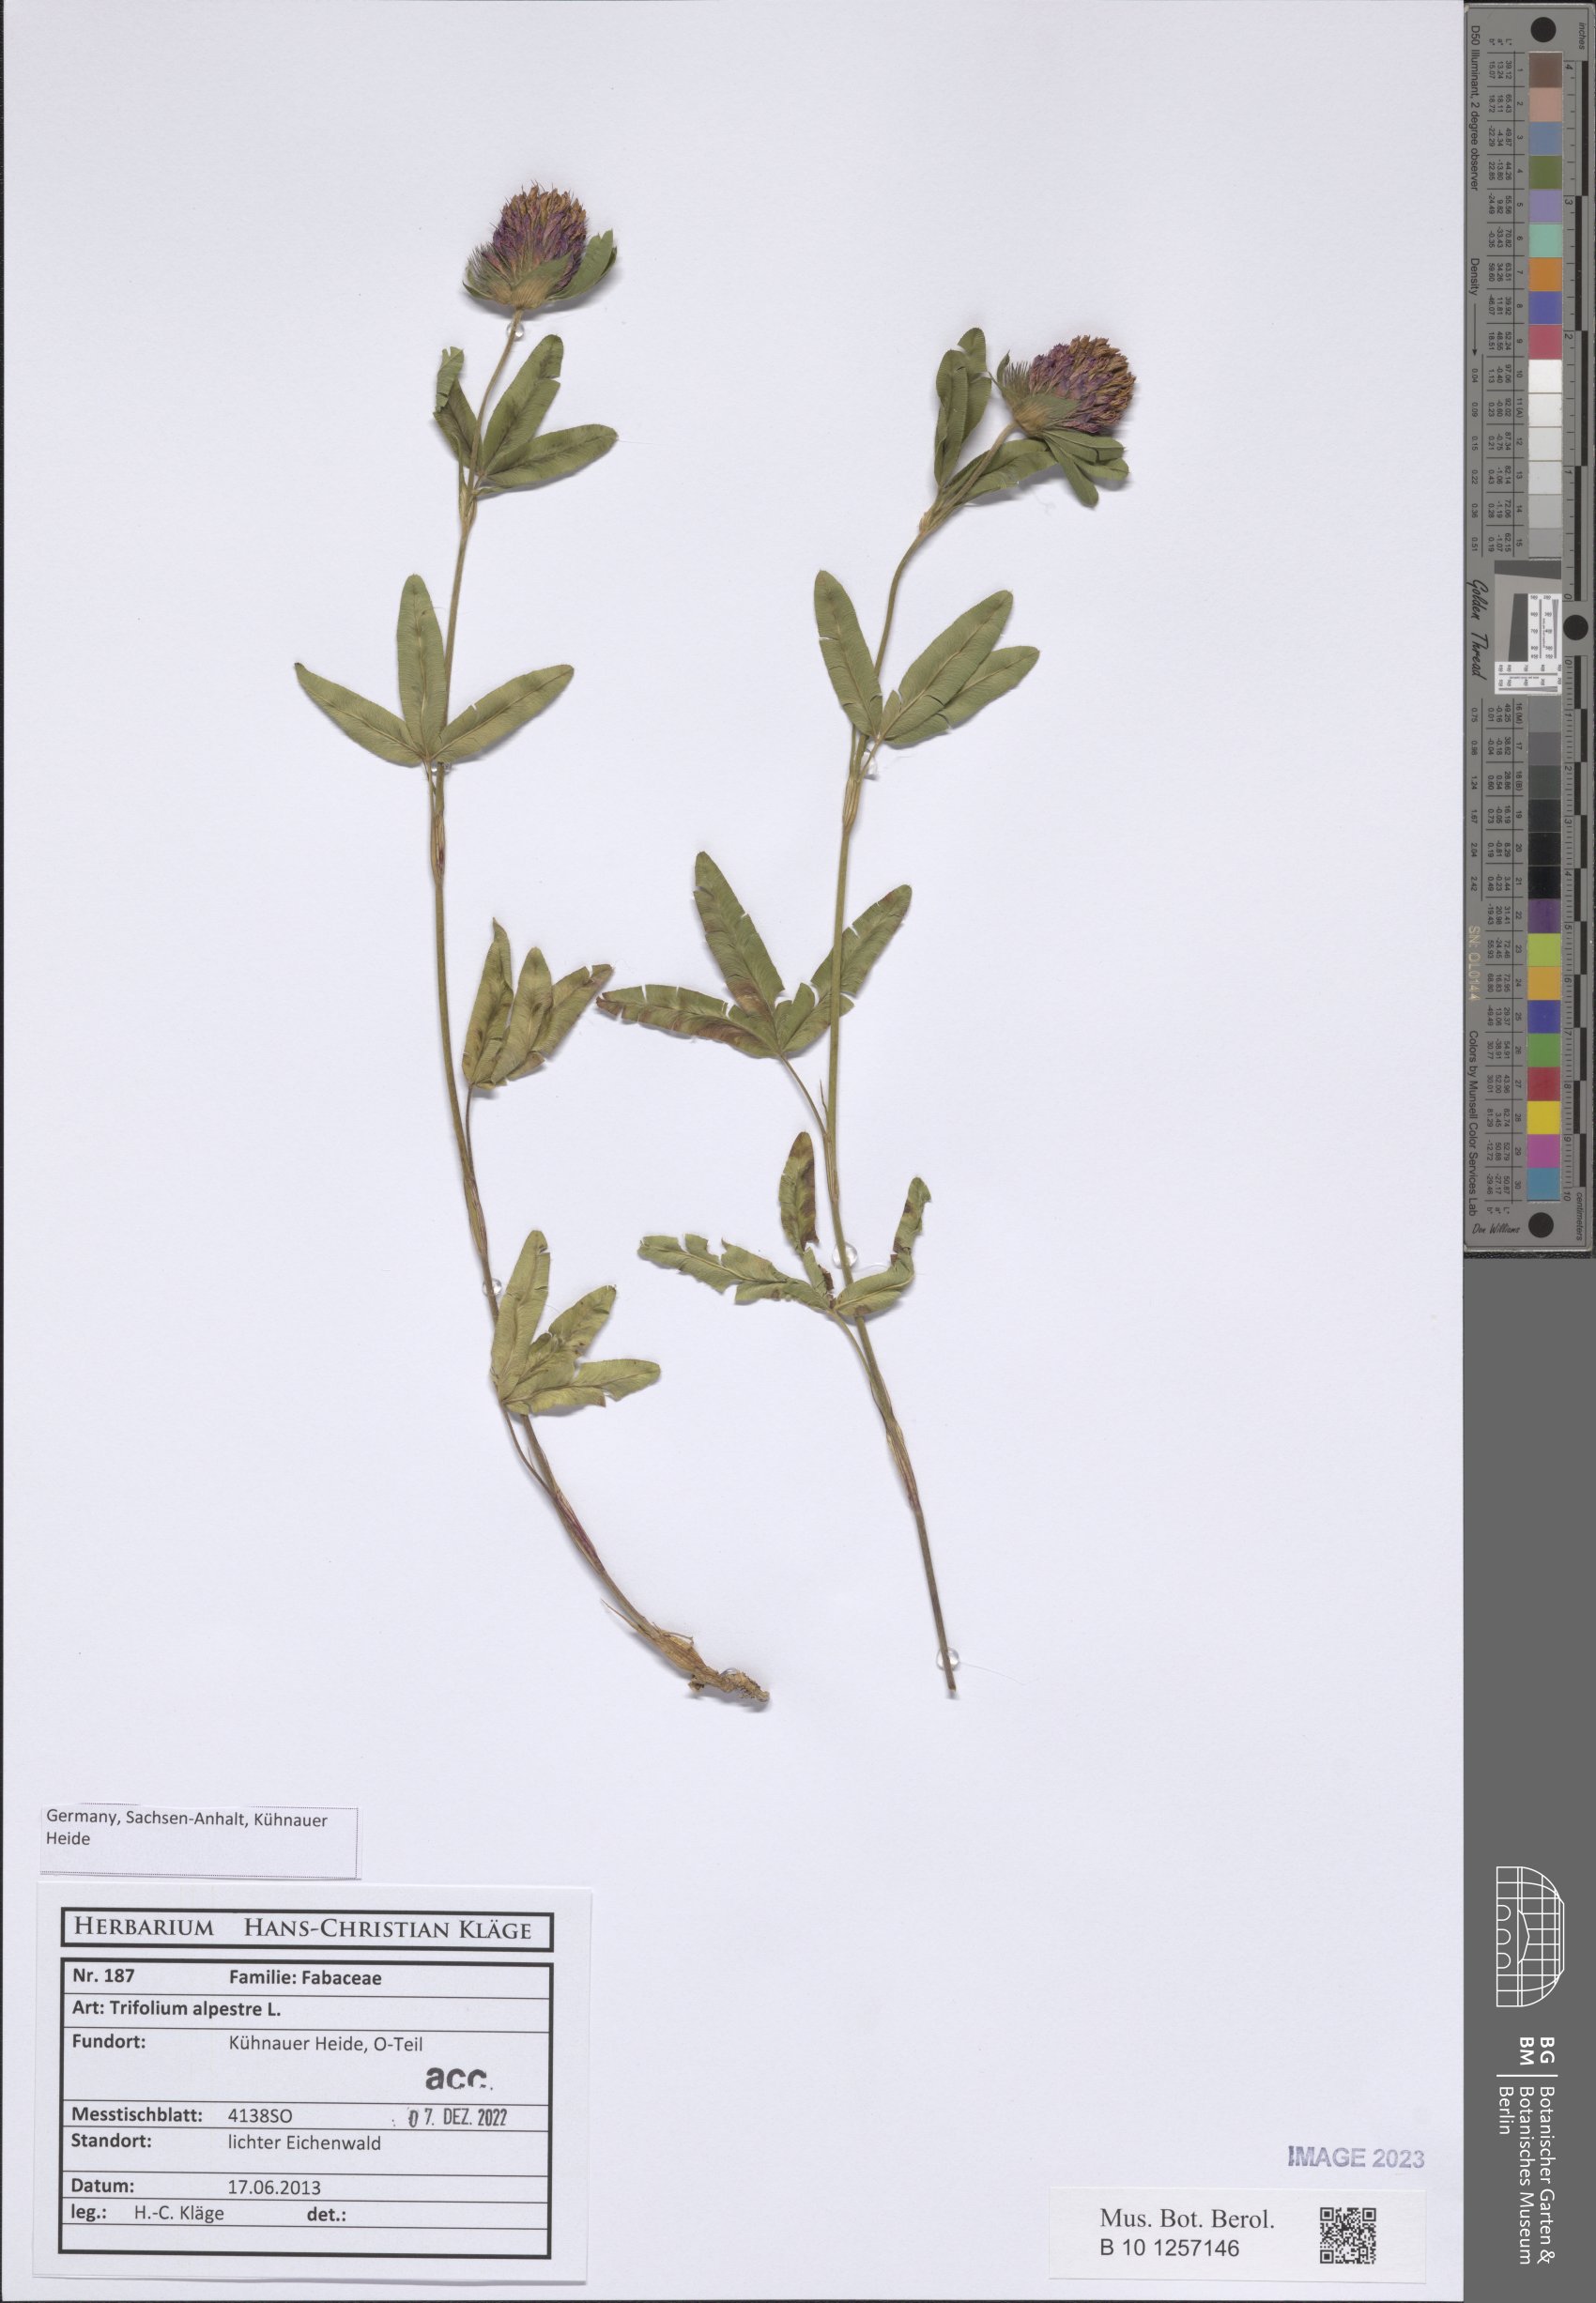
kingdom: Plantae
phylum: Tracheophyta
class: Magnoliopsida
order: Fabales
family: Fabaceae
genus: Trifolium
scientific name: Trifolium alpestre
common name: Owl-head clover
